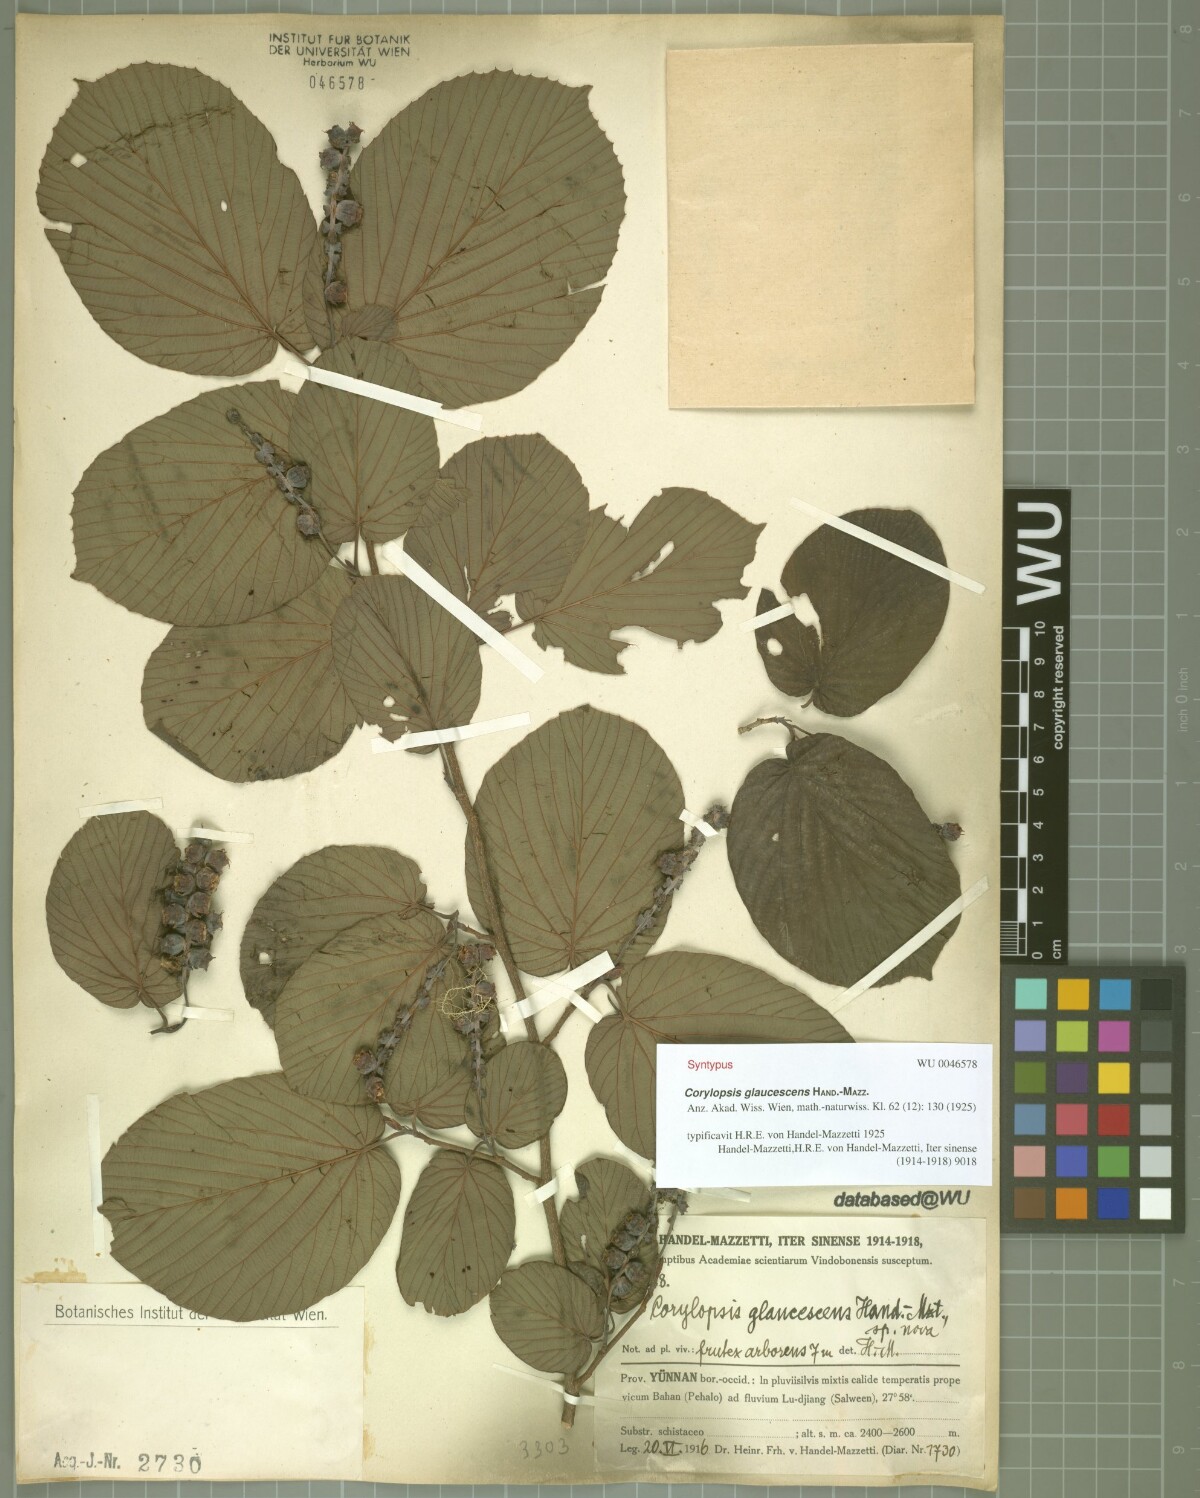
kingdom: Plantae
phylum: Tracheophyta
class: Magnoliopsida
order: Saxifragales
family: Hamamelidaceae
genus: Corylopsis
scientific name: Corylopsis glaucescens
